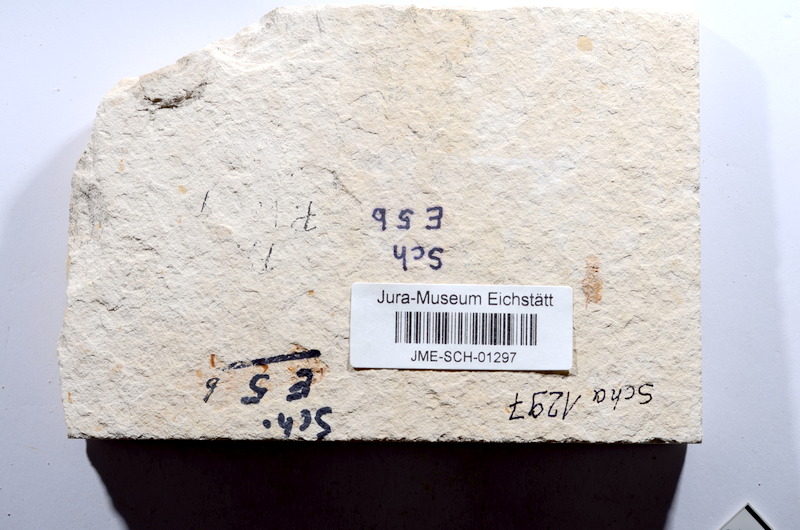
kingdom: Animalia
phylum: Chordata
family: Ascalaboidae
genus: Tharsis
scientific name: Tharsis dubius
